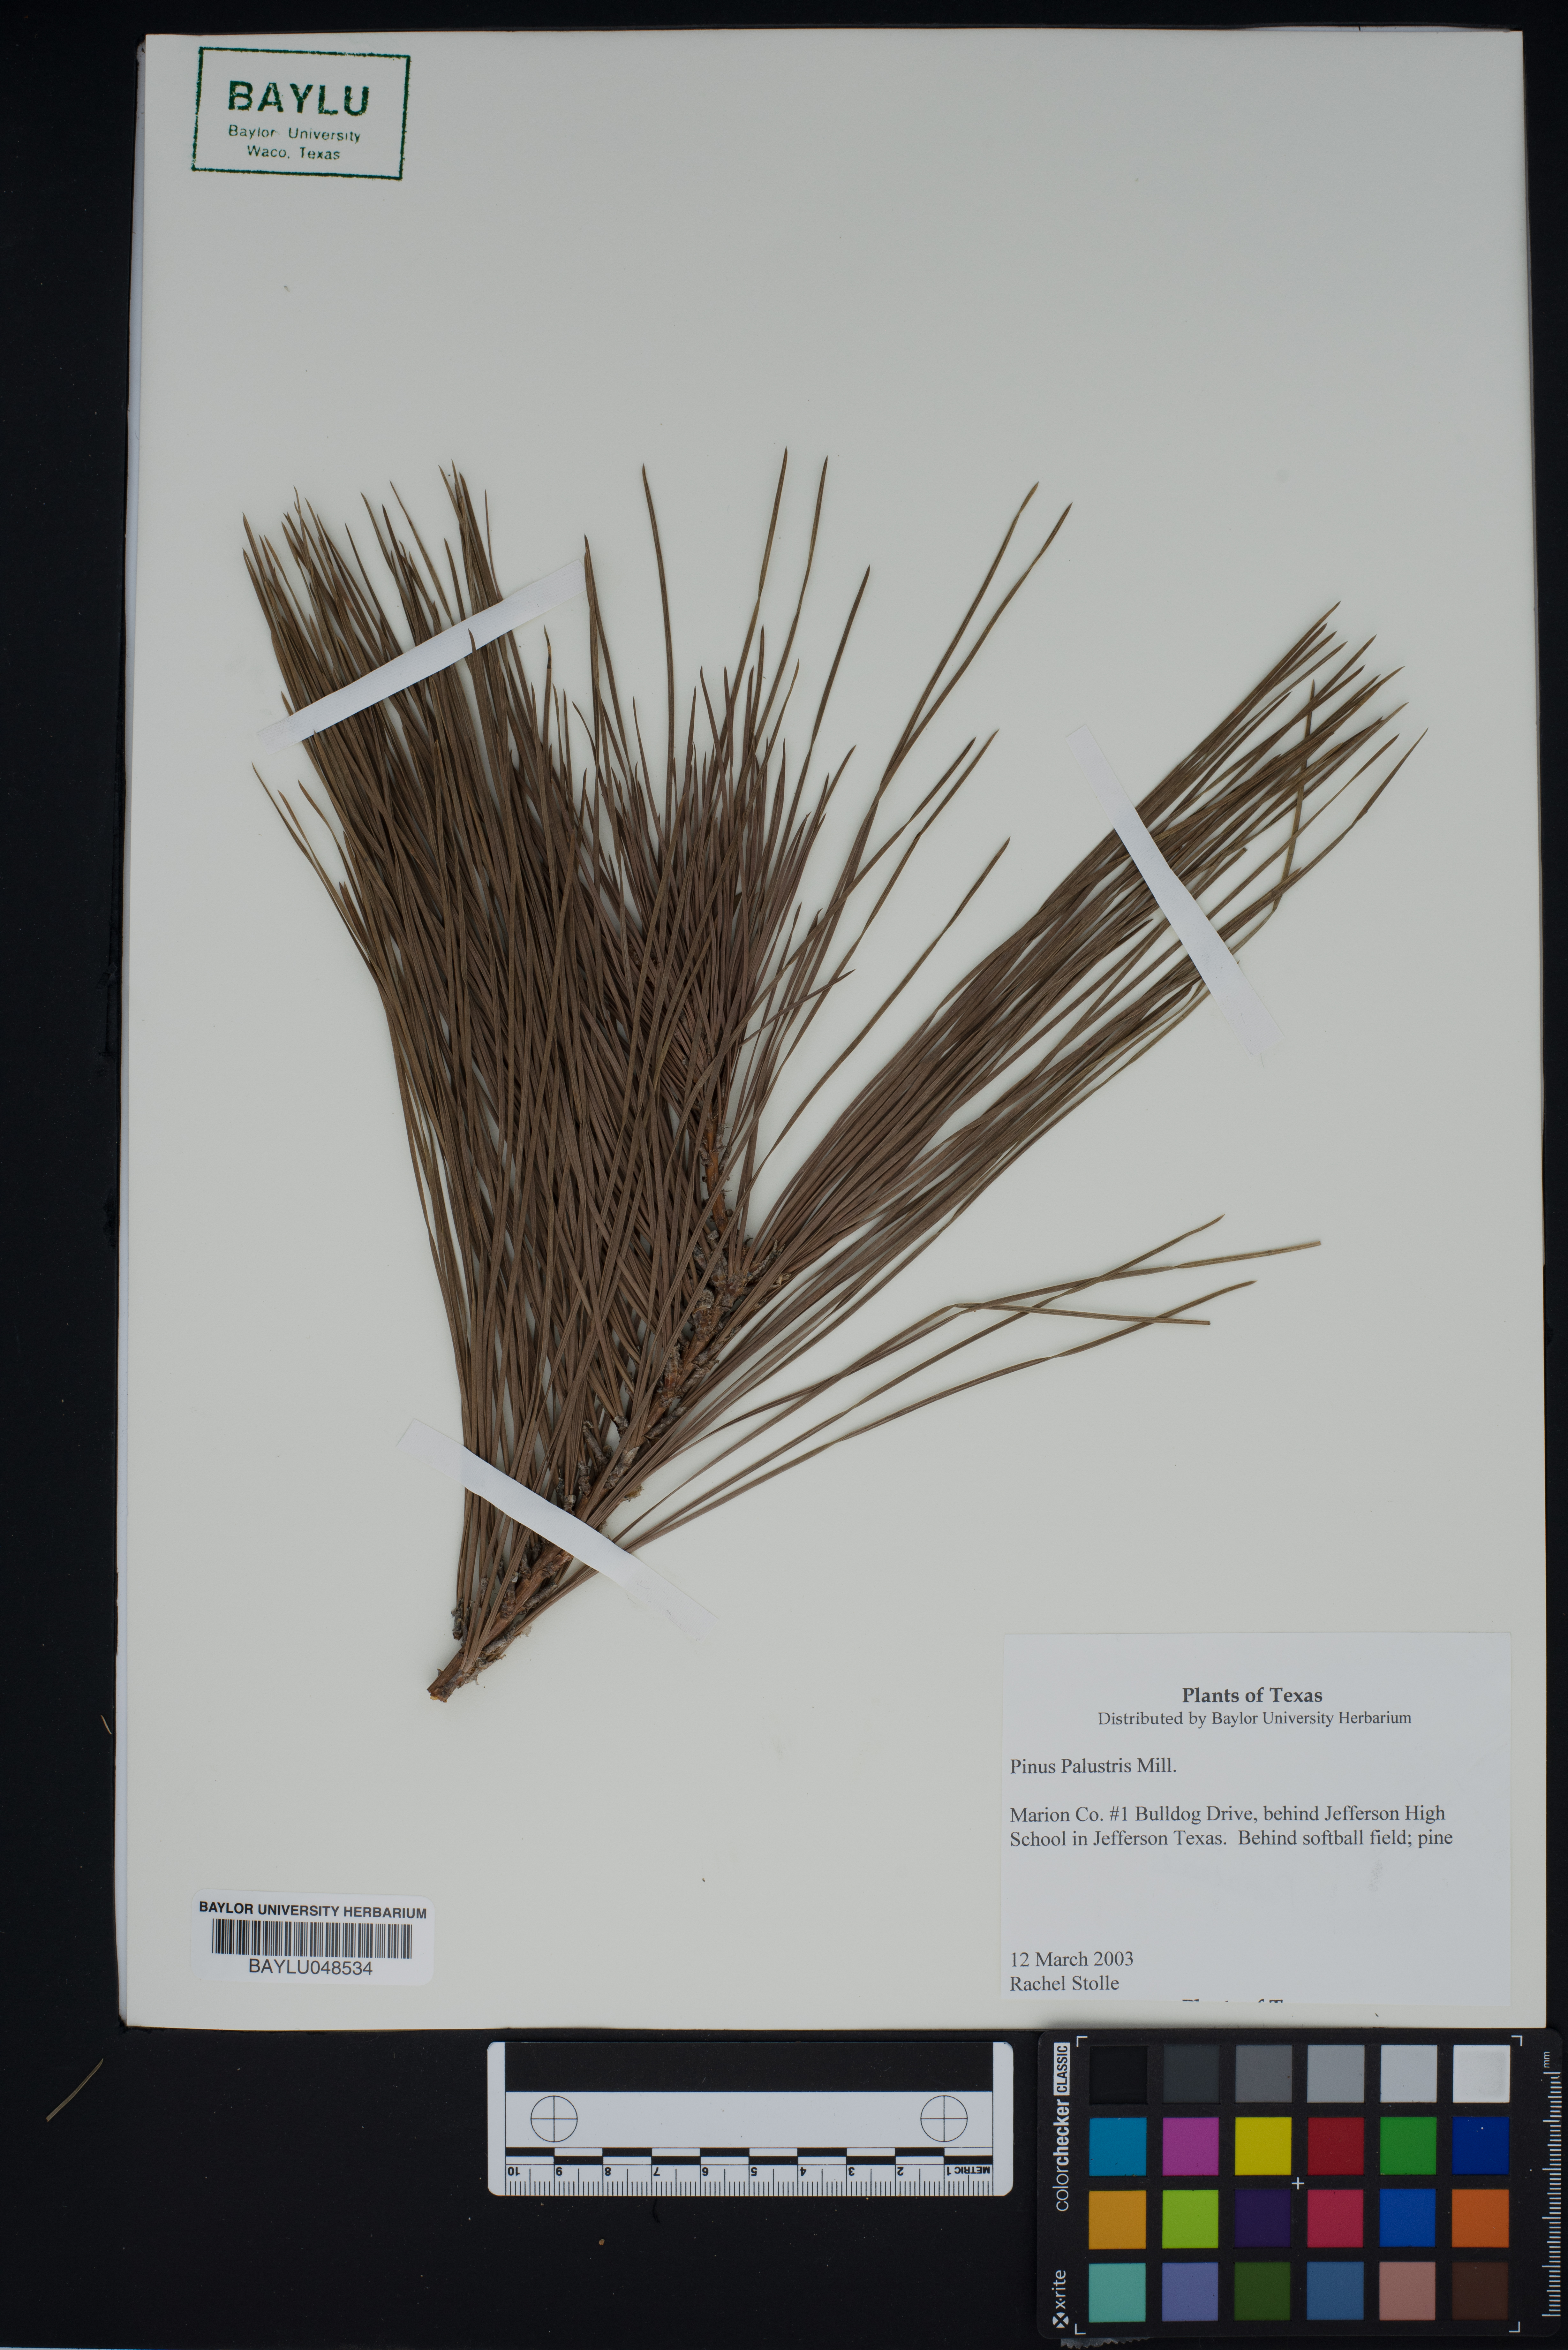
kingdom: Plantae
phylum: Tracheophyta
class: Pinopsida
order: Pinales
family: Pinaceae
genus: Pinus
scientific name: Pinus palustris
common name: Longleaf pine
